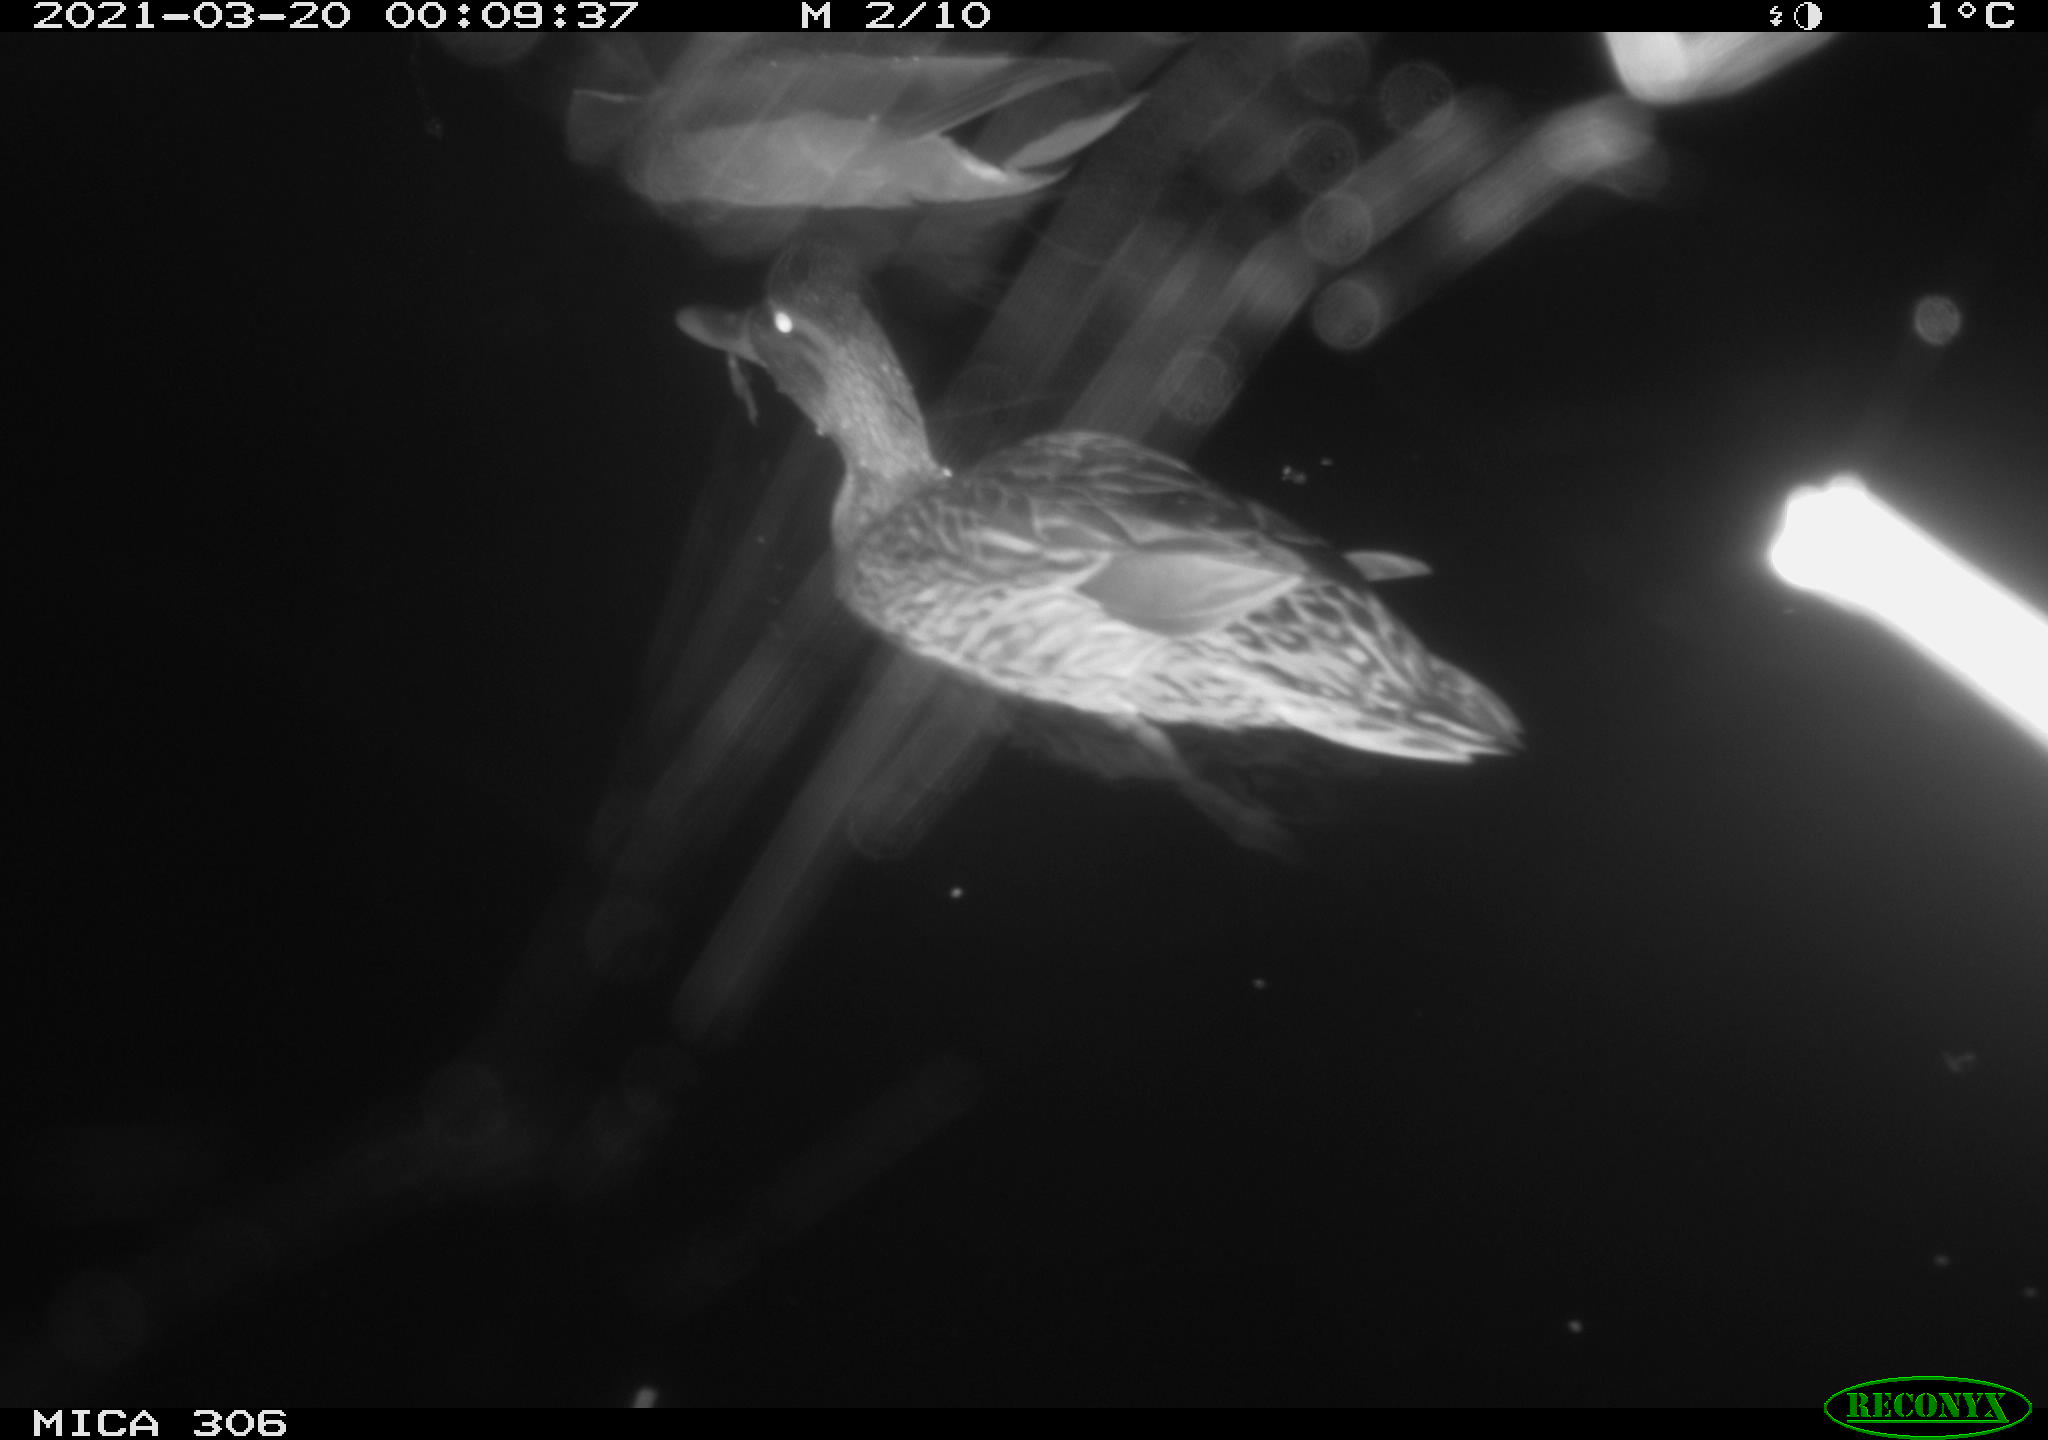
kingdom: Animalia
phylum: Chordata
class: Aves
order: Anseriformes
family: Anatidae
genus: Anas
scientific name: Anas platyrhynchos
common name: Mallard
